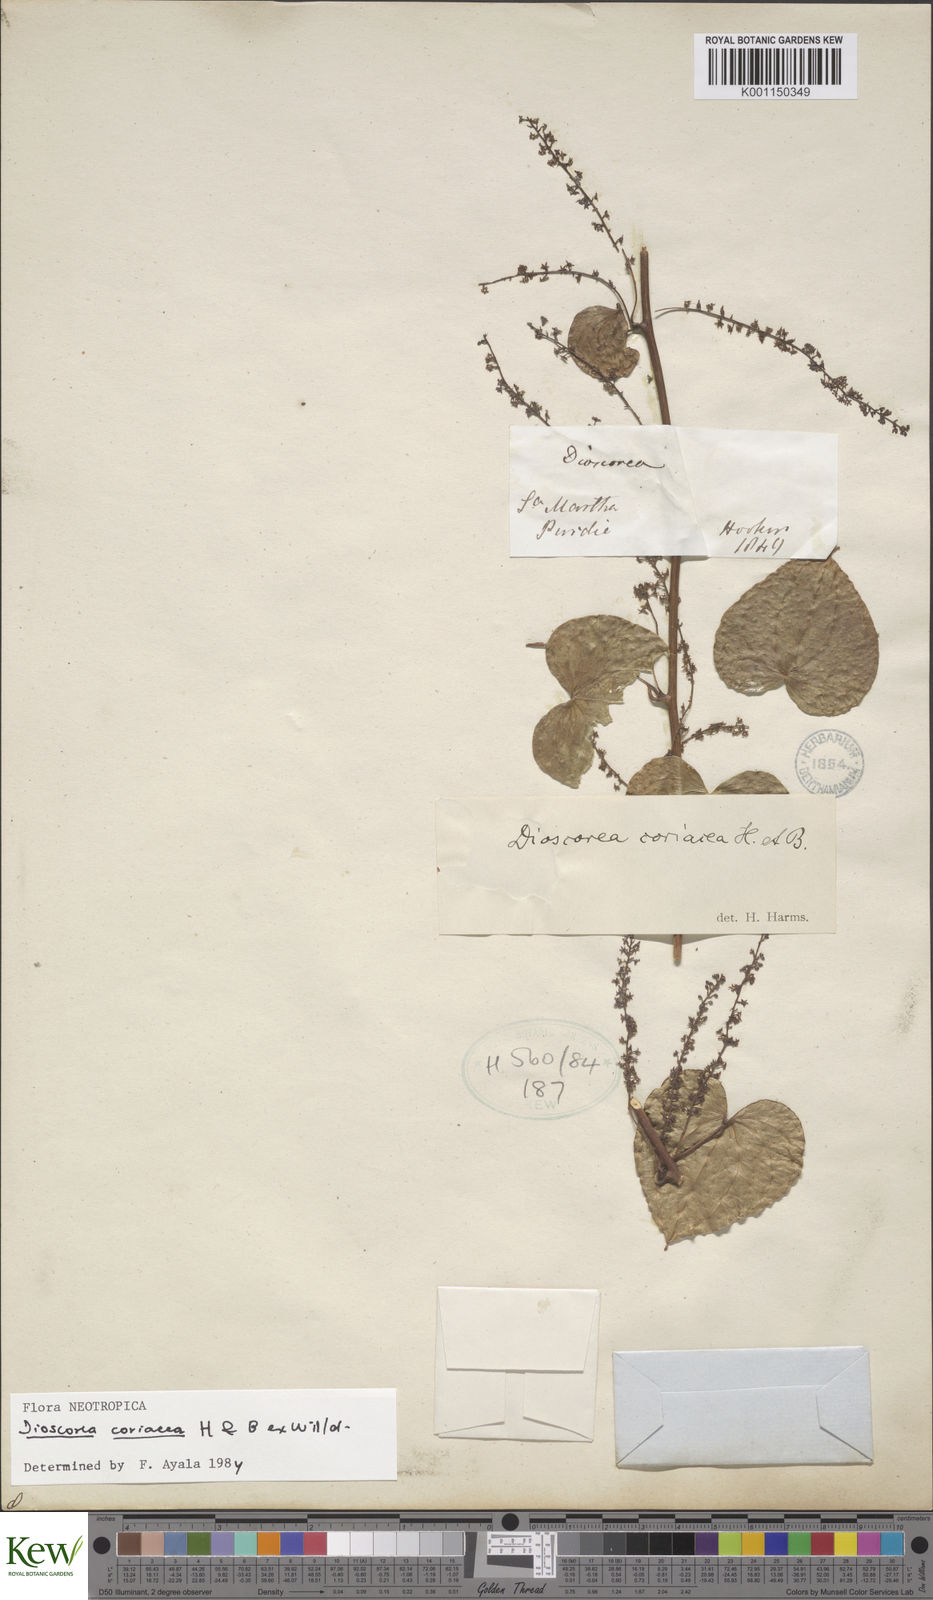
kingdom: Plantae
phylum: Tracheophyta
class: Liliopsida
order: Dioscoreales
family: Dioscoreaceae
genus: Dioscorea
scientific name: Dioscorea coriacea
